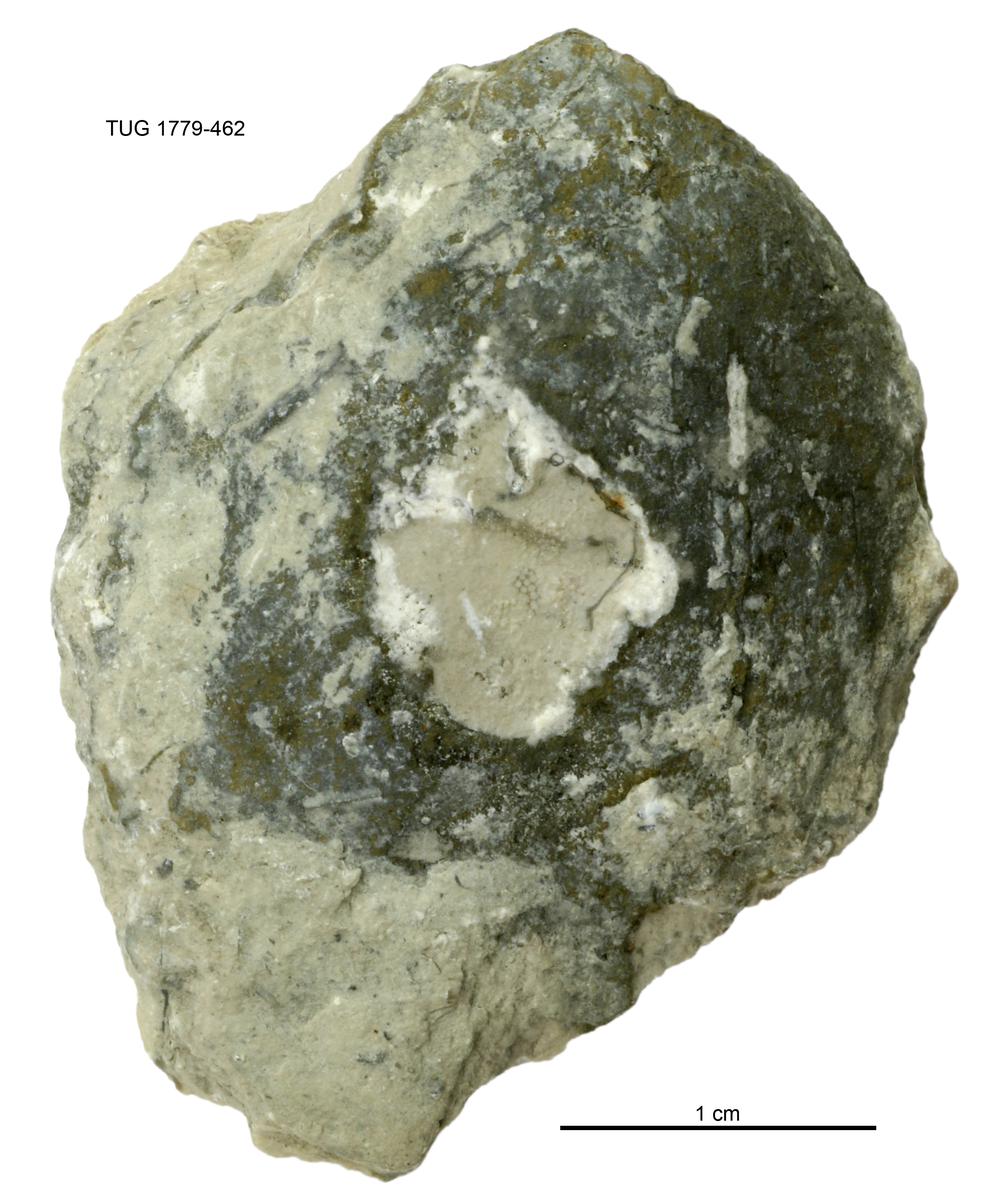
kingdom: Animalia
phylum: Mollusca
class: Bivalvia
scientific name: Bivalvia
